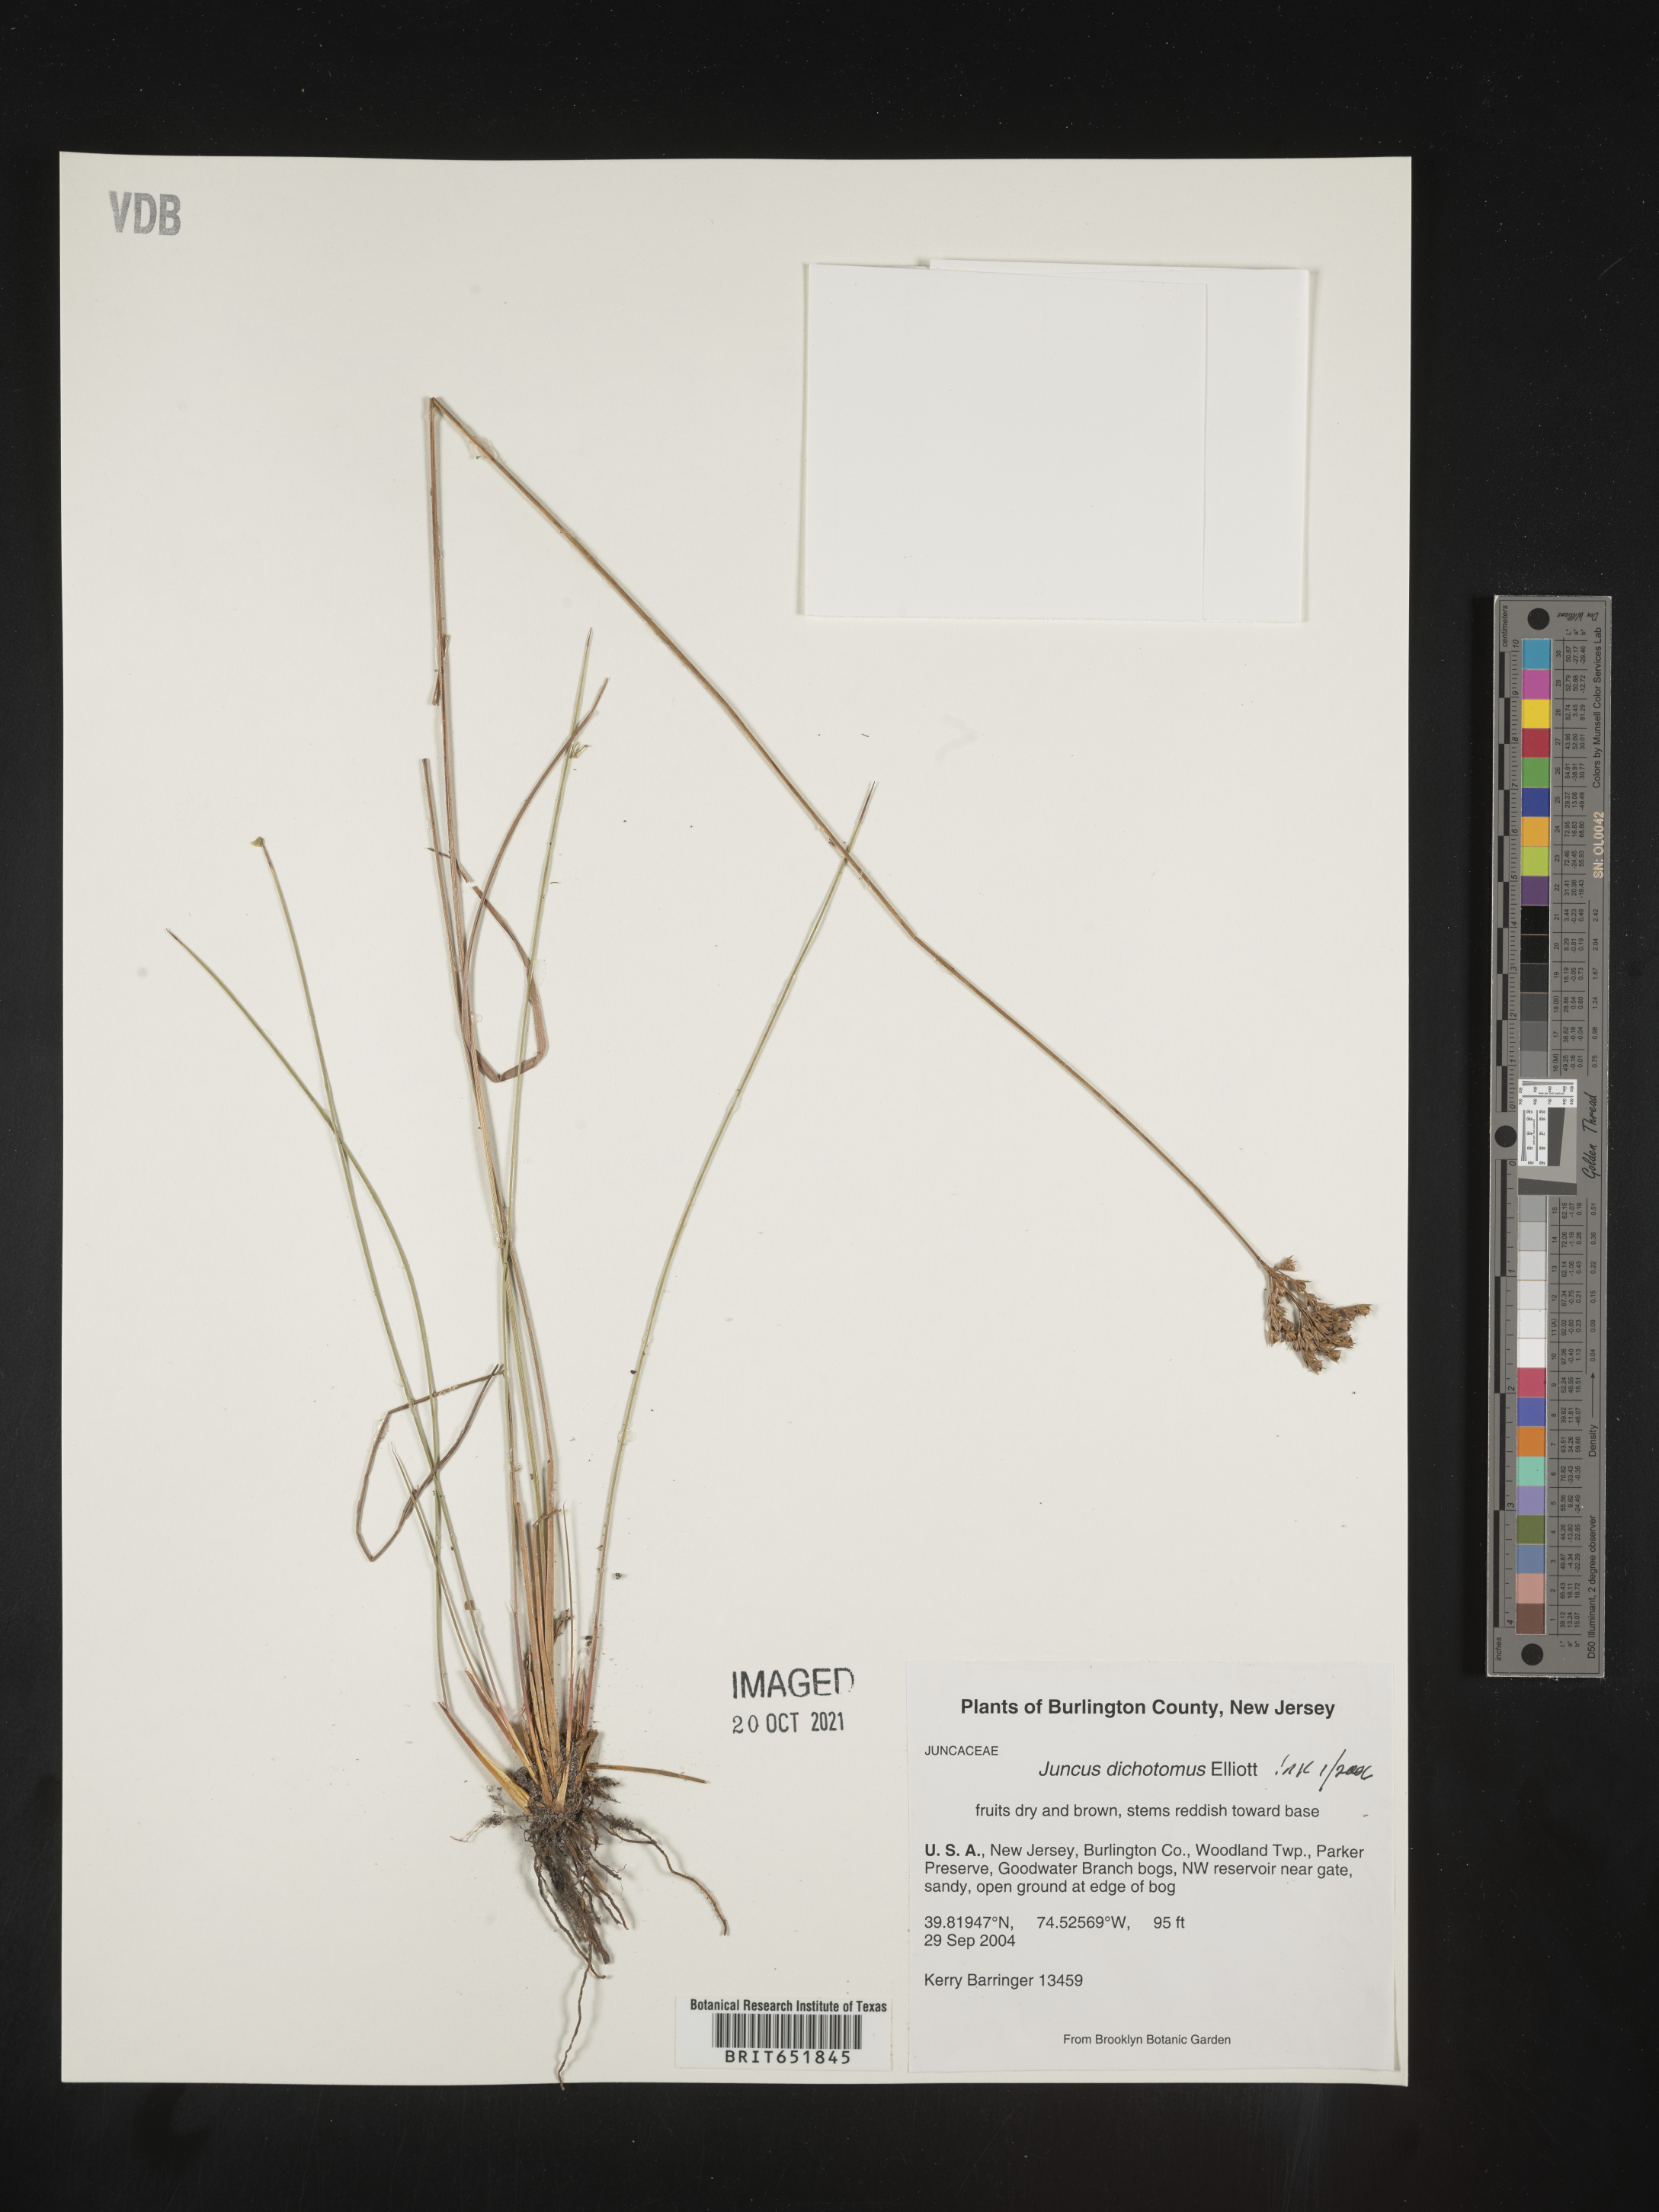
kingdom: Plantae
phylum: Tracheophyta
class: Liliopsida
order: Poales
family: Juncaceae
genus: Juncus
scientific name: Juncus dichotomus
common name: Forked rush
